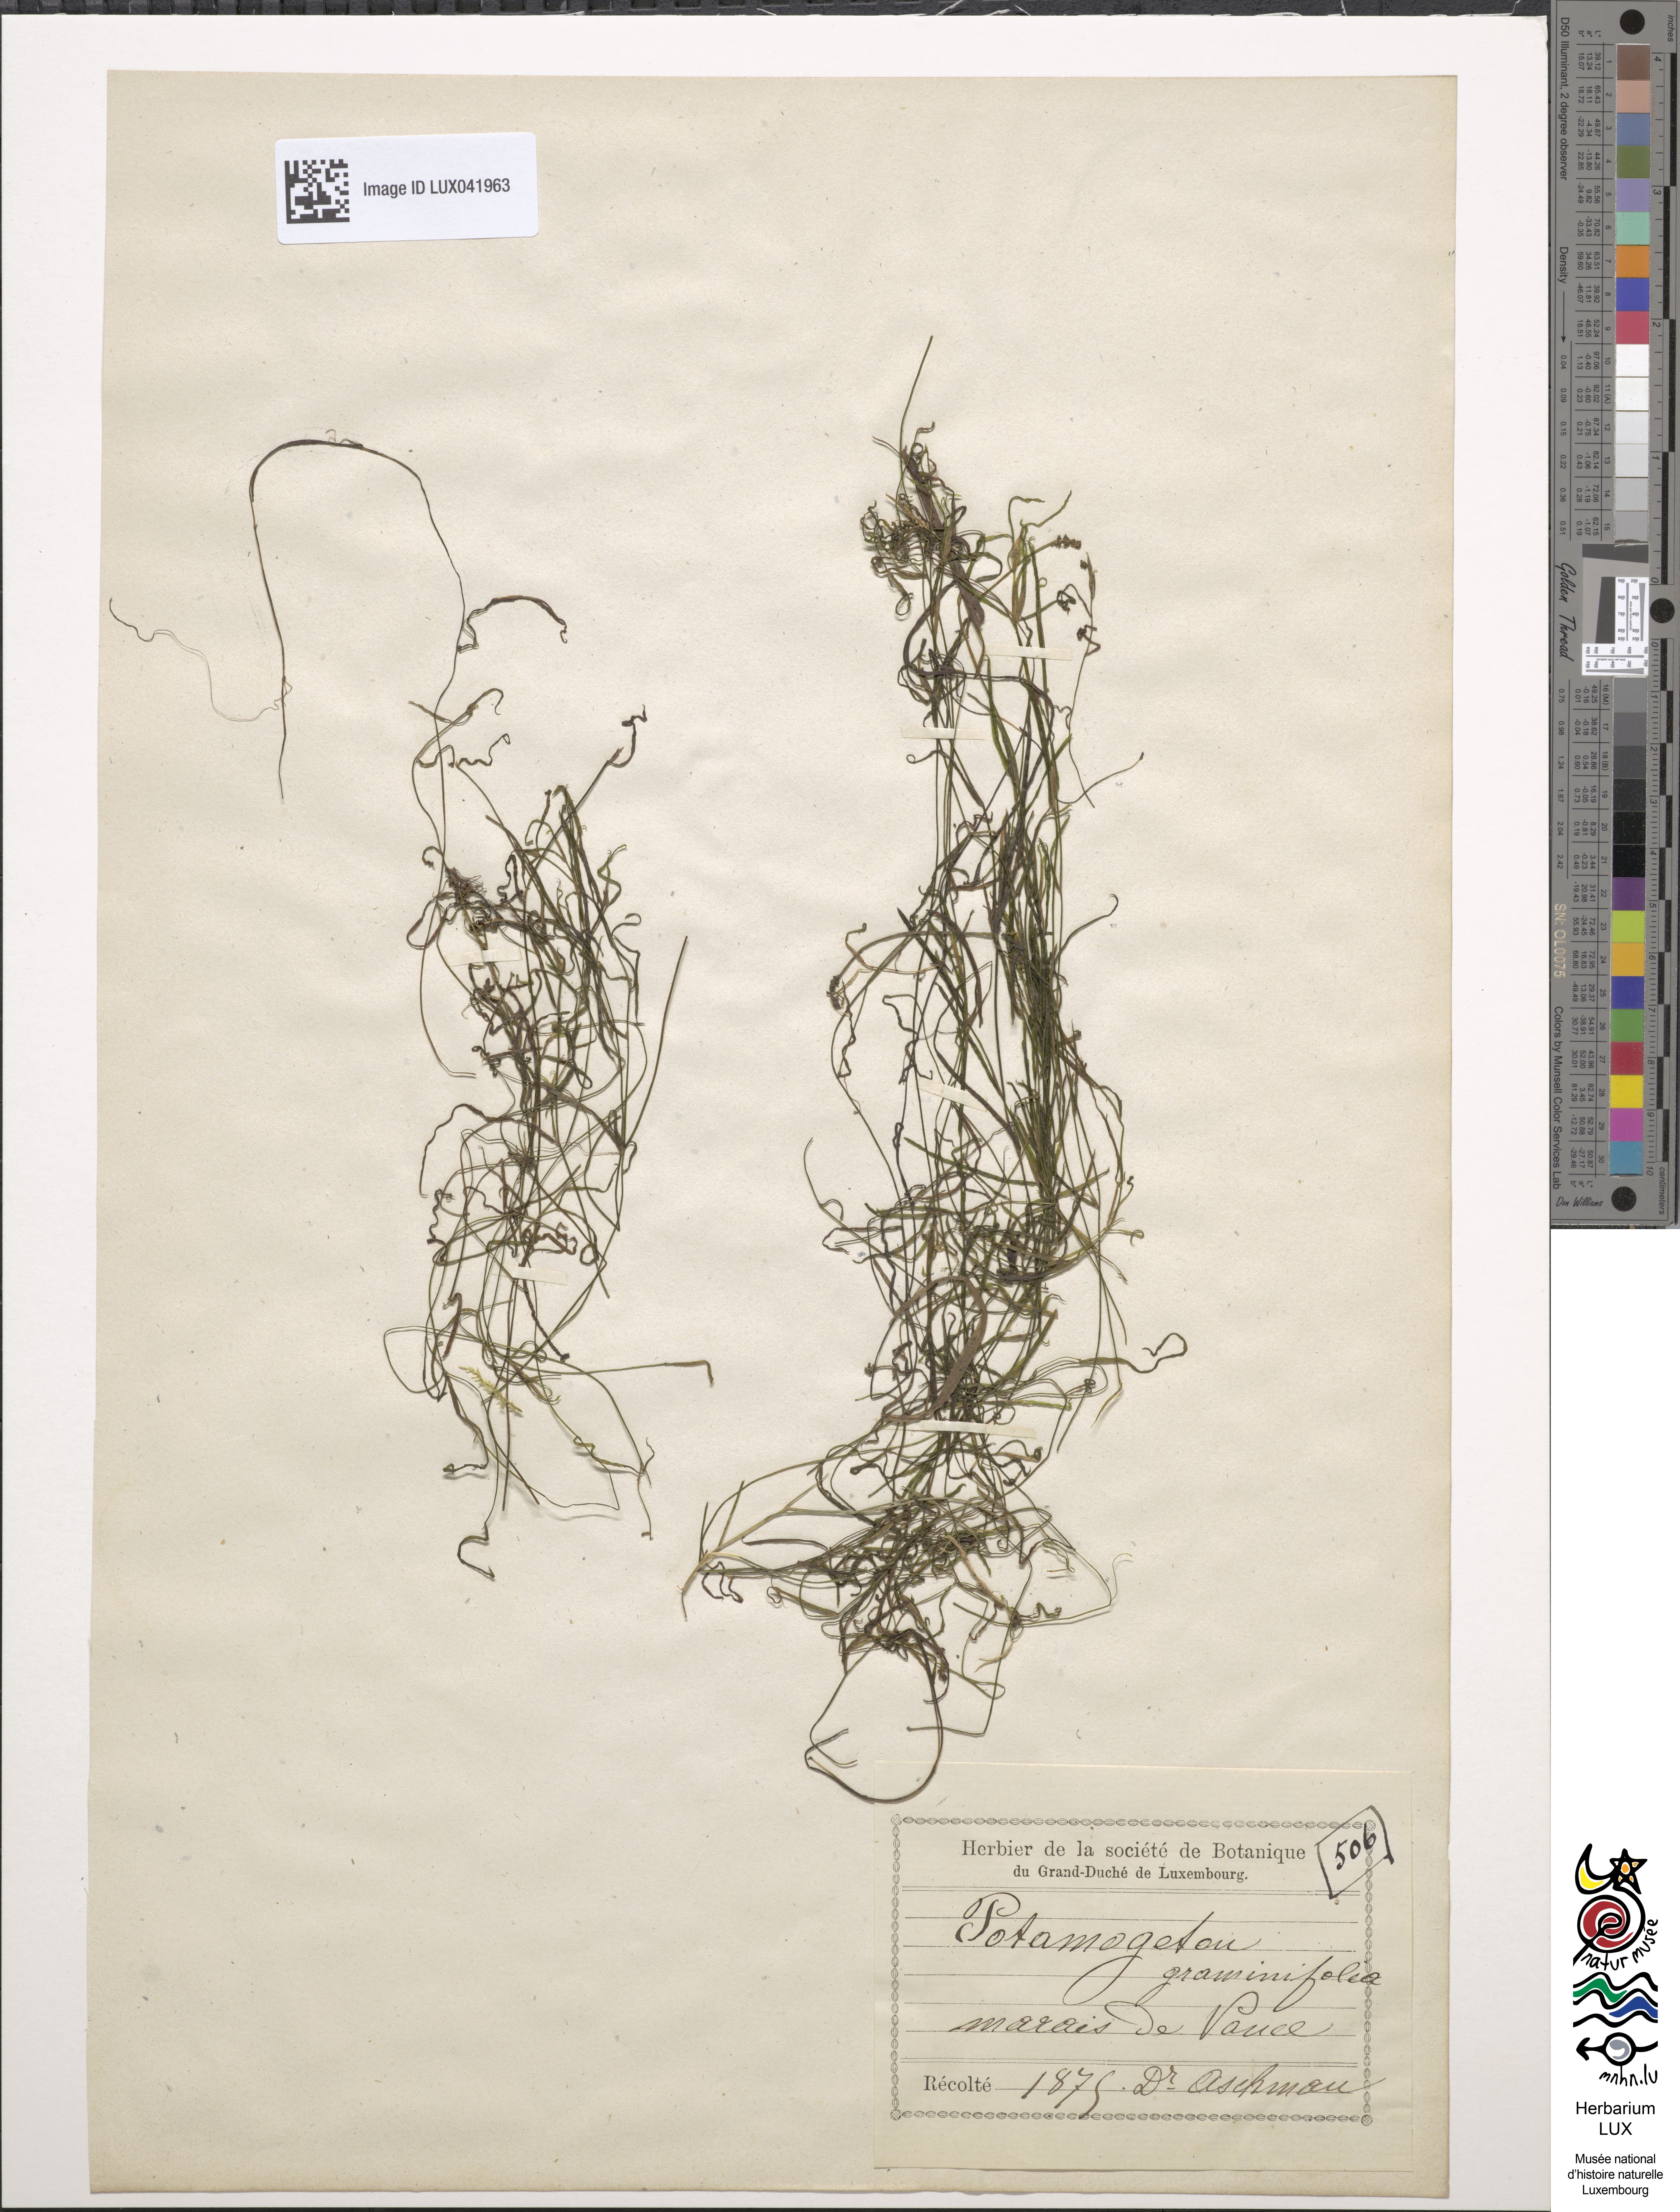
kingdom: Plantae
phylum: Tracheophyta
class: Liliopsida
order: Alismatales
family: Potamogetonaceae
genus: Potamogeton
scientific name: Potamogeton gramineus
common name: Various-leaved pondweed
